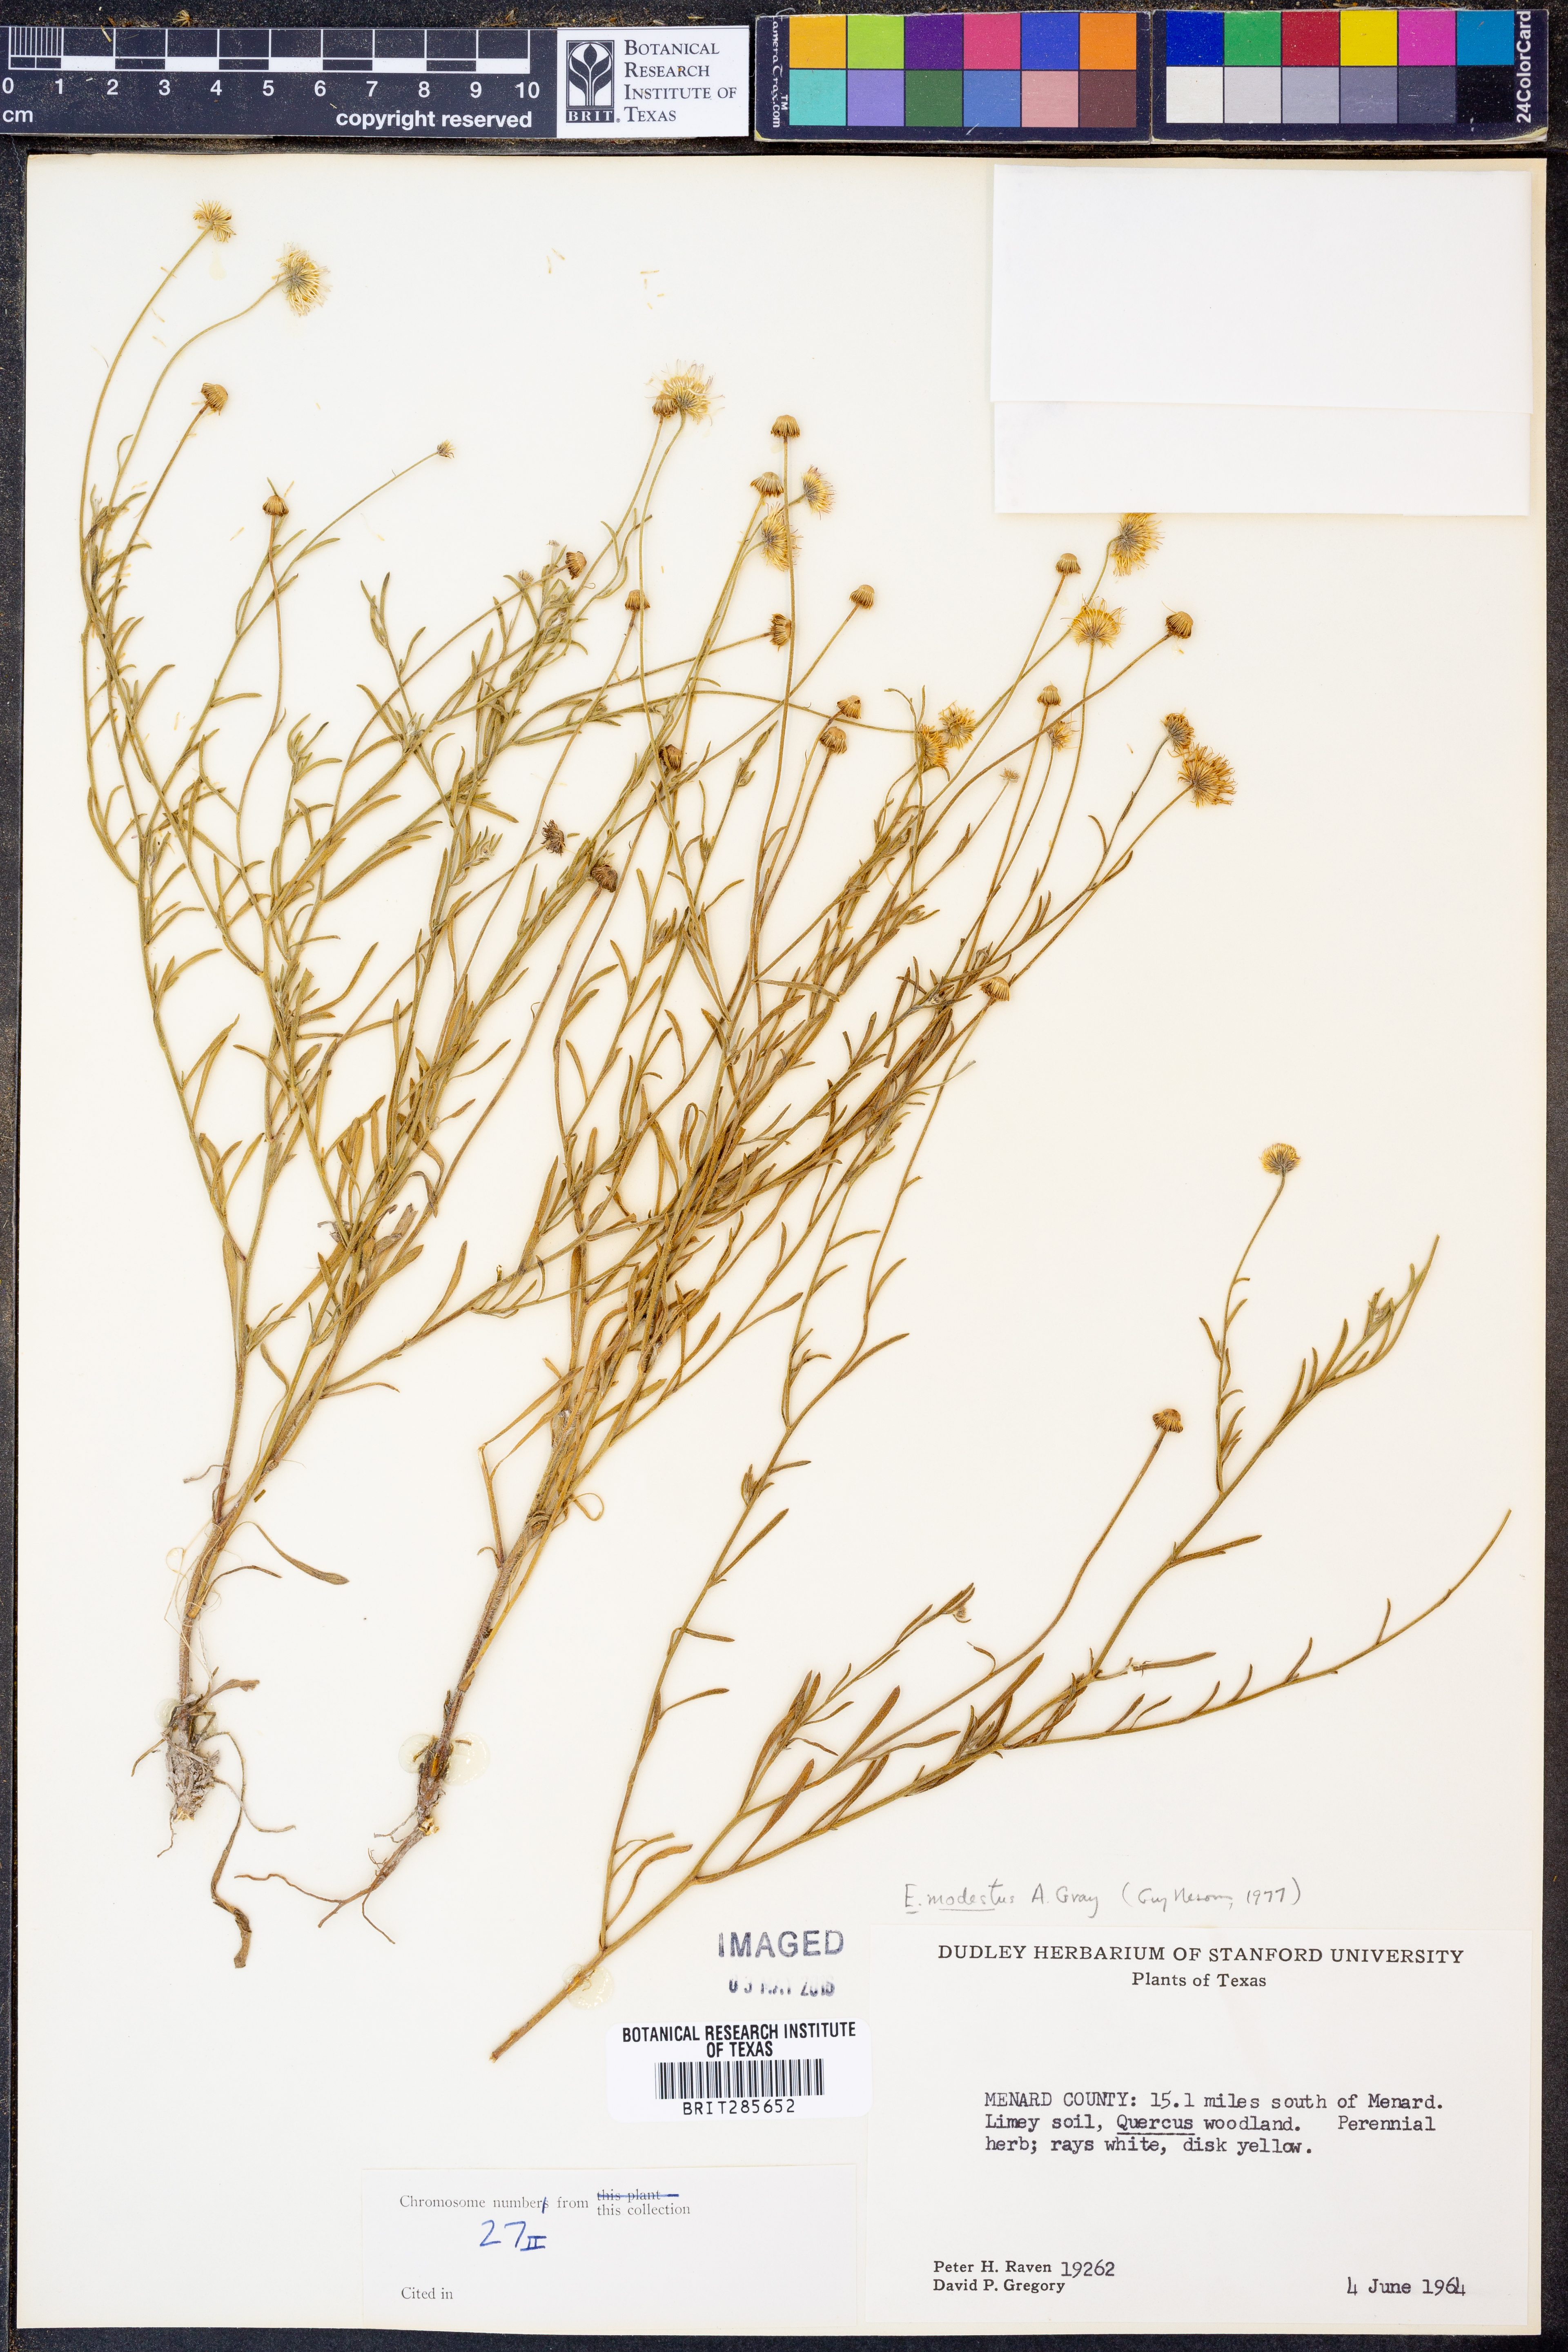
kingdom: Plantae
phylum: Tracheophyta
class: Magnoliopsida
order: Asterales
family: Asteraceae
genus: Erigeron
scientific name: Erigeron modestus
